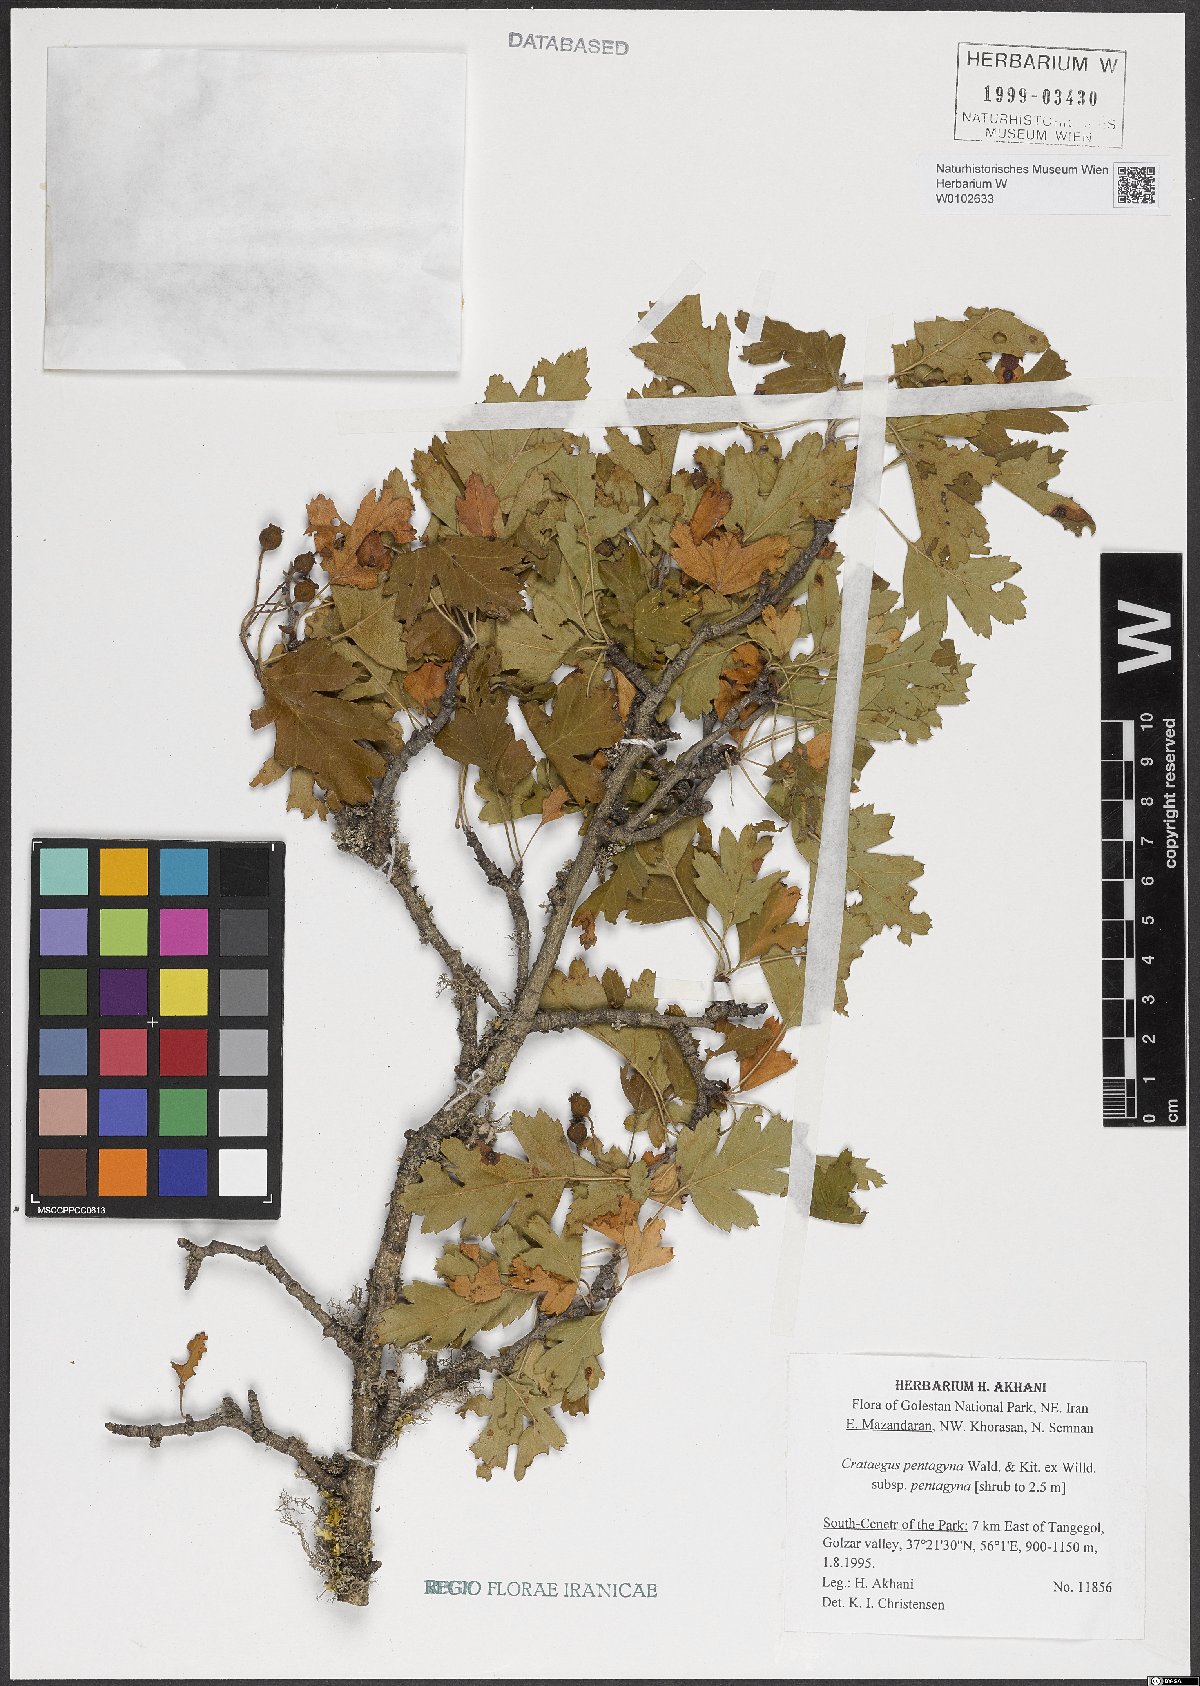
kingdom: Plantae
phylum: Tracheophyta
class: Magnoliopsida
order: Rosales
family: Rosaceae
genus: Crataegus
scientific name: Crataegus pentagyna
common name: Small-flowered black hawthorn
